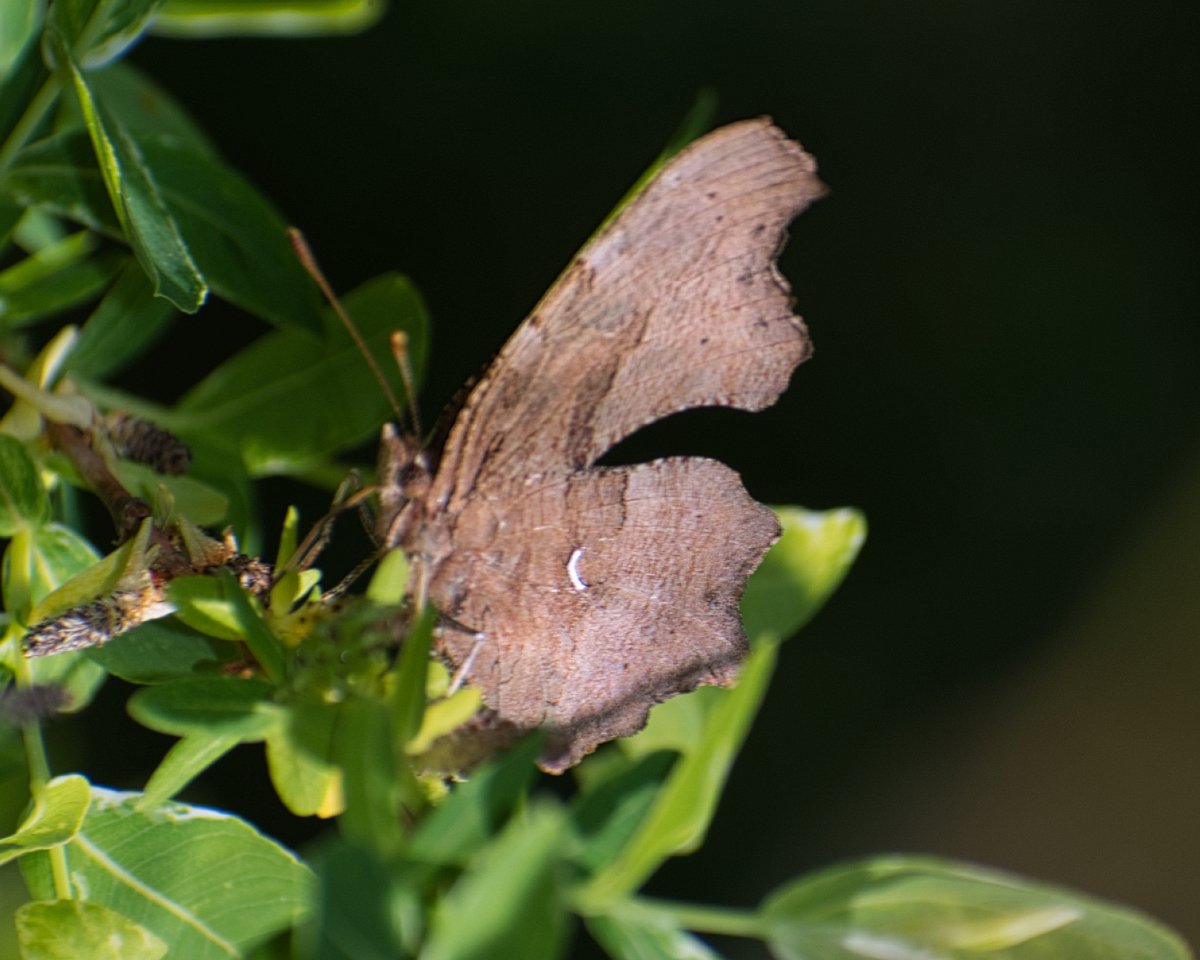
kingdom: Animalia
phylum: Arthropoda
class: Insecta
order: Lepidoptera
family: Nymphalidae
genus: Polygonia
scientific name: Polygonia satyrus
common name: Satyr Comma
